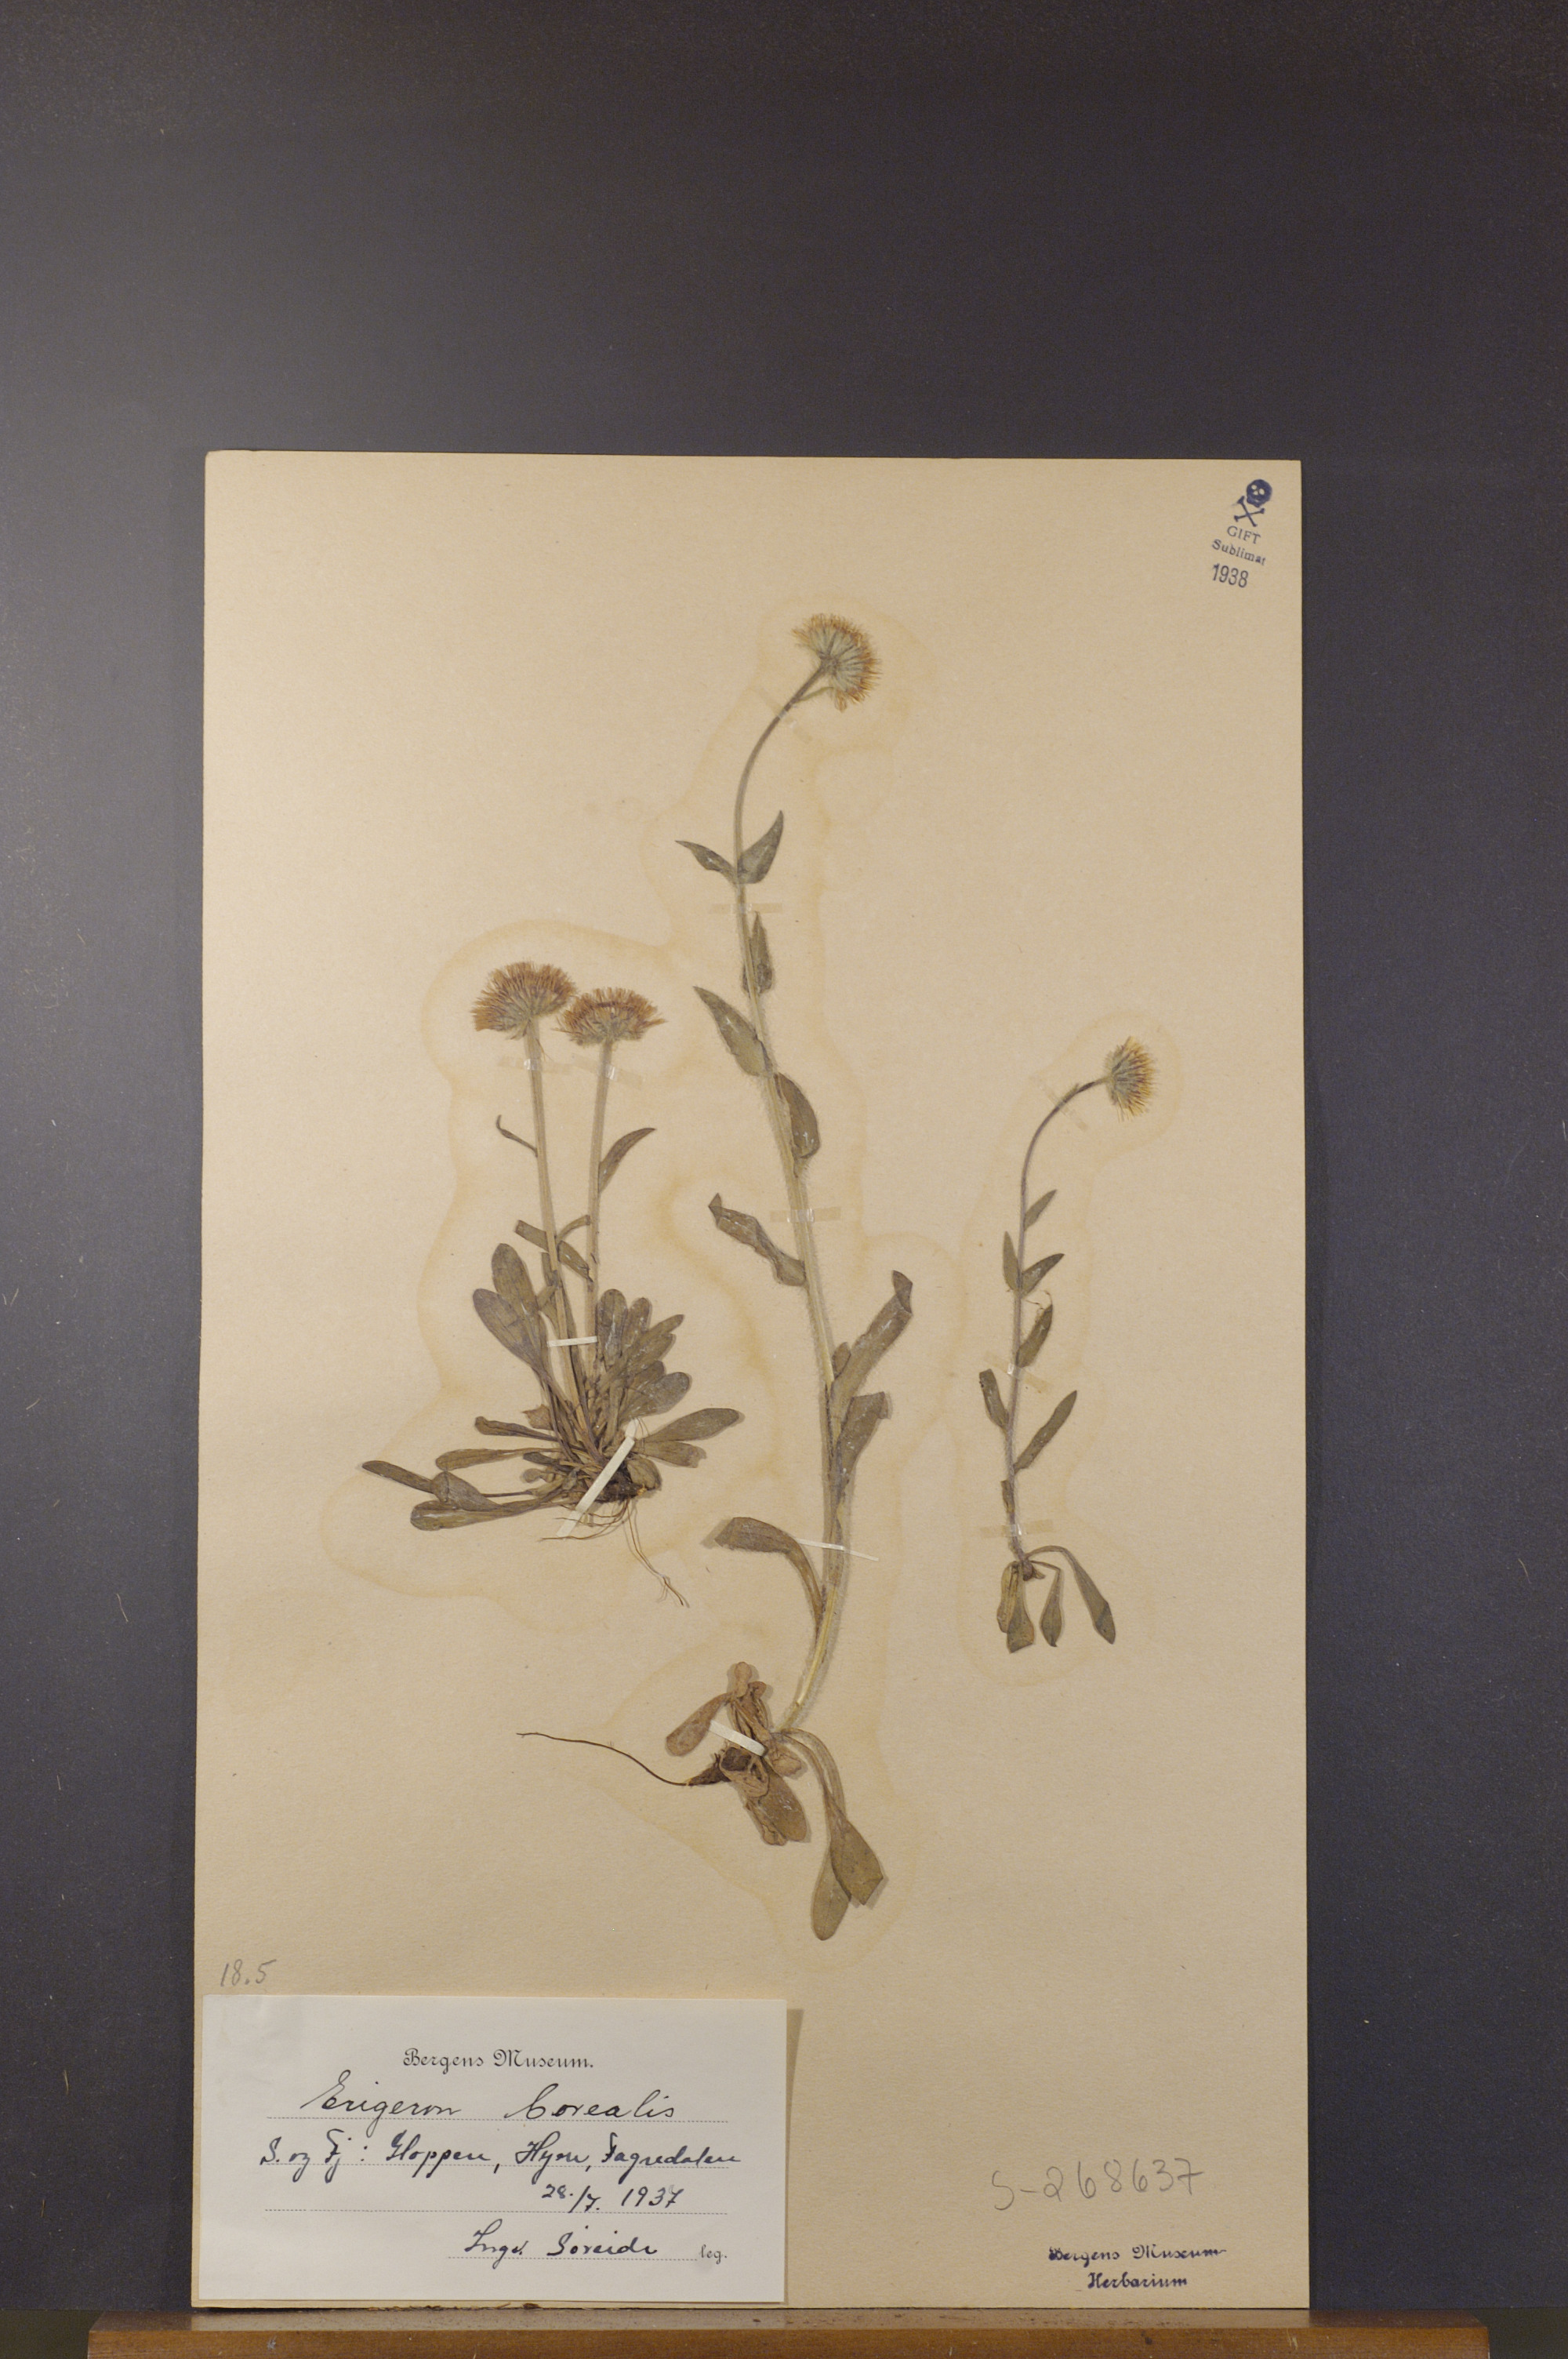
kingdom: Plantae
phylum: Tracheophyta
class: Magnoliopsida
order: Asterales
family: Asteraceae
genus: Erigeron
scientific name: Erigeron borealis
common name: Alpine fleabane
